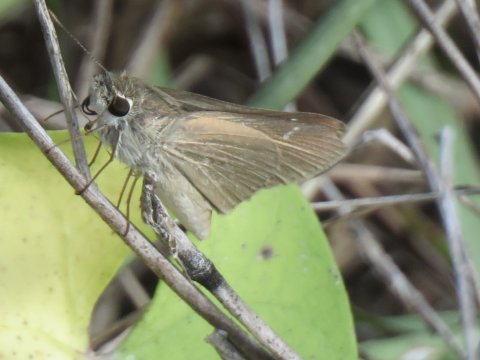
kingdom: Animalia
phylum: Arthropoda
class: Insecta
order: Lepidoptera
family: Hesperiidae
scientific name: Hesperiidae
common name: Skippers
